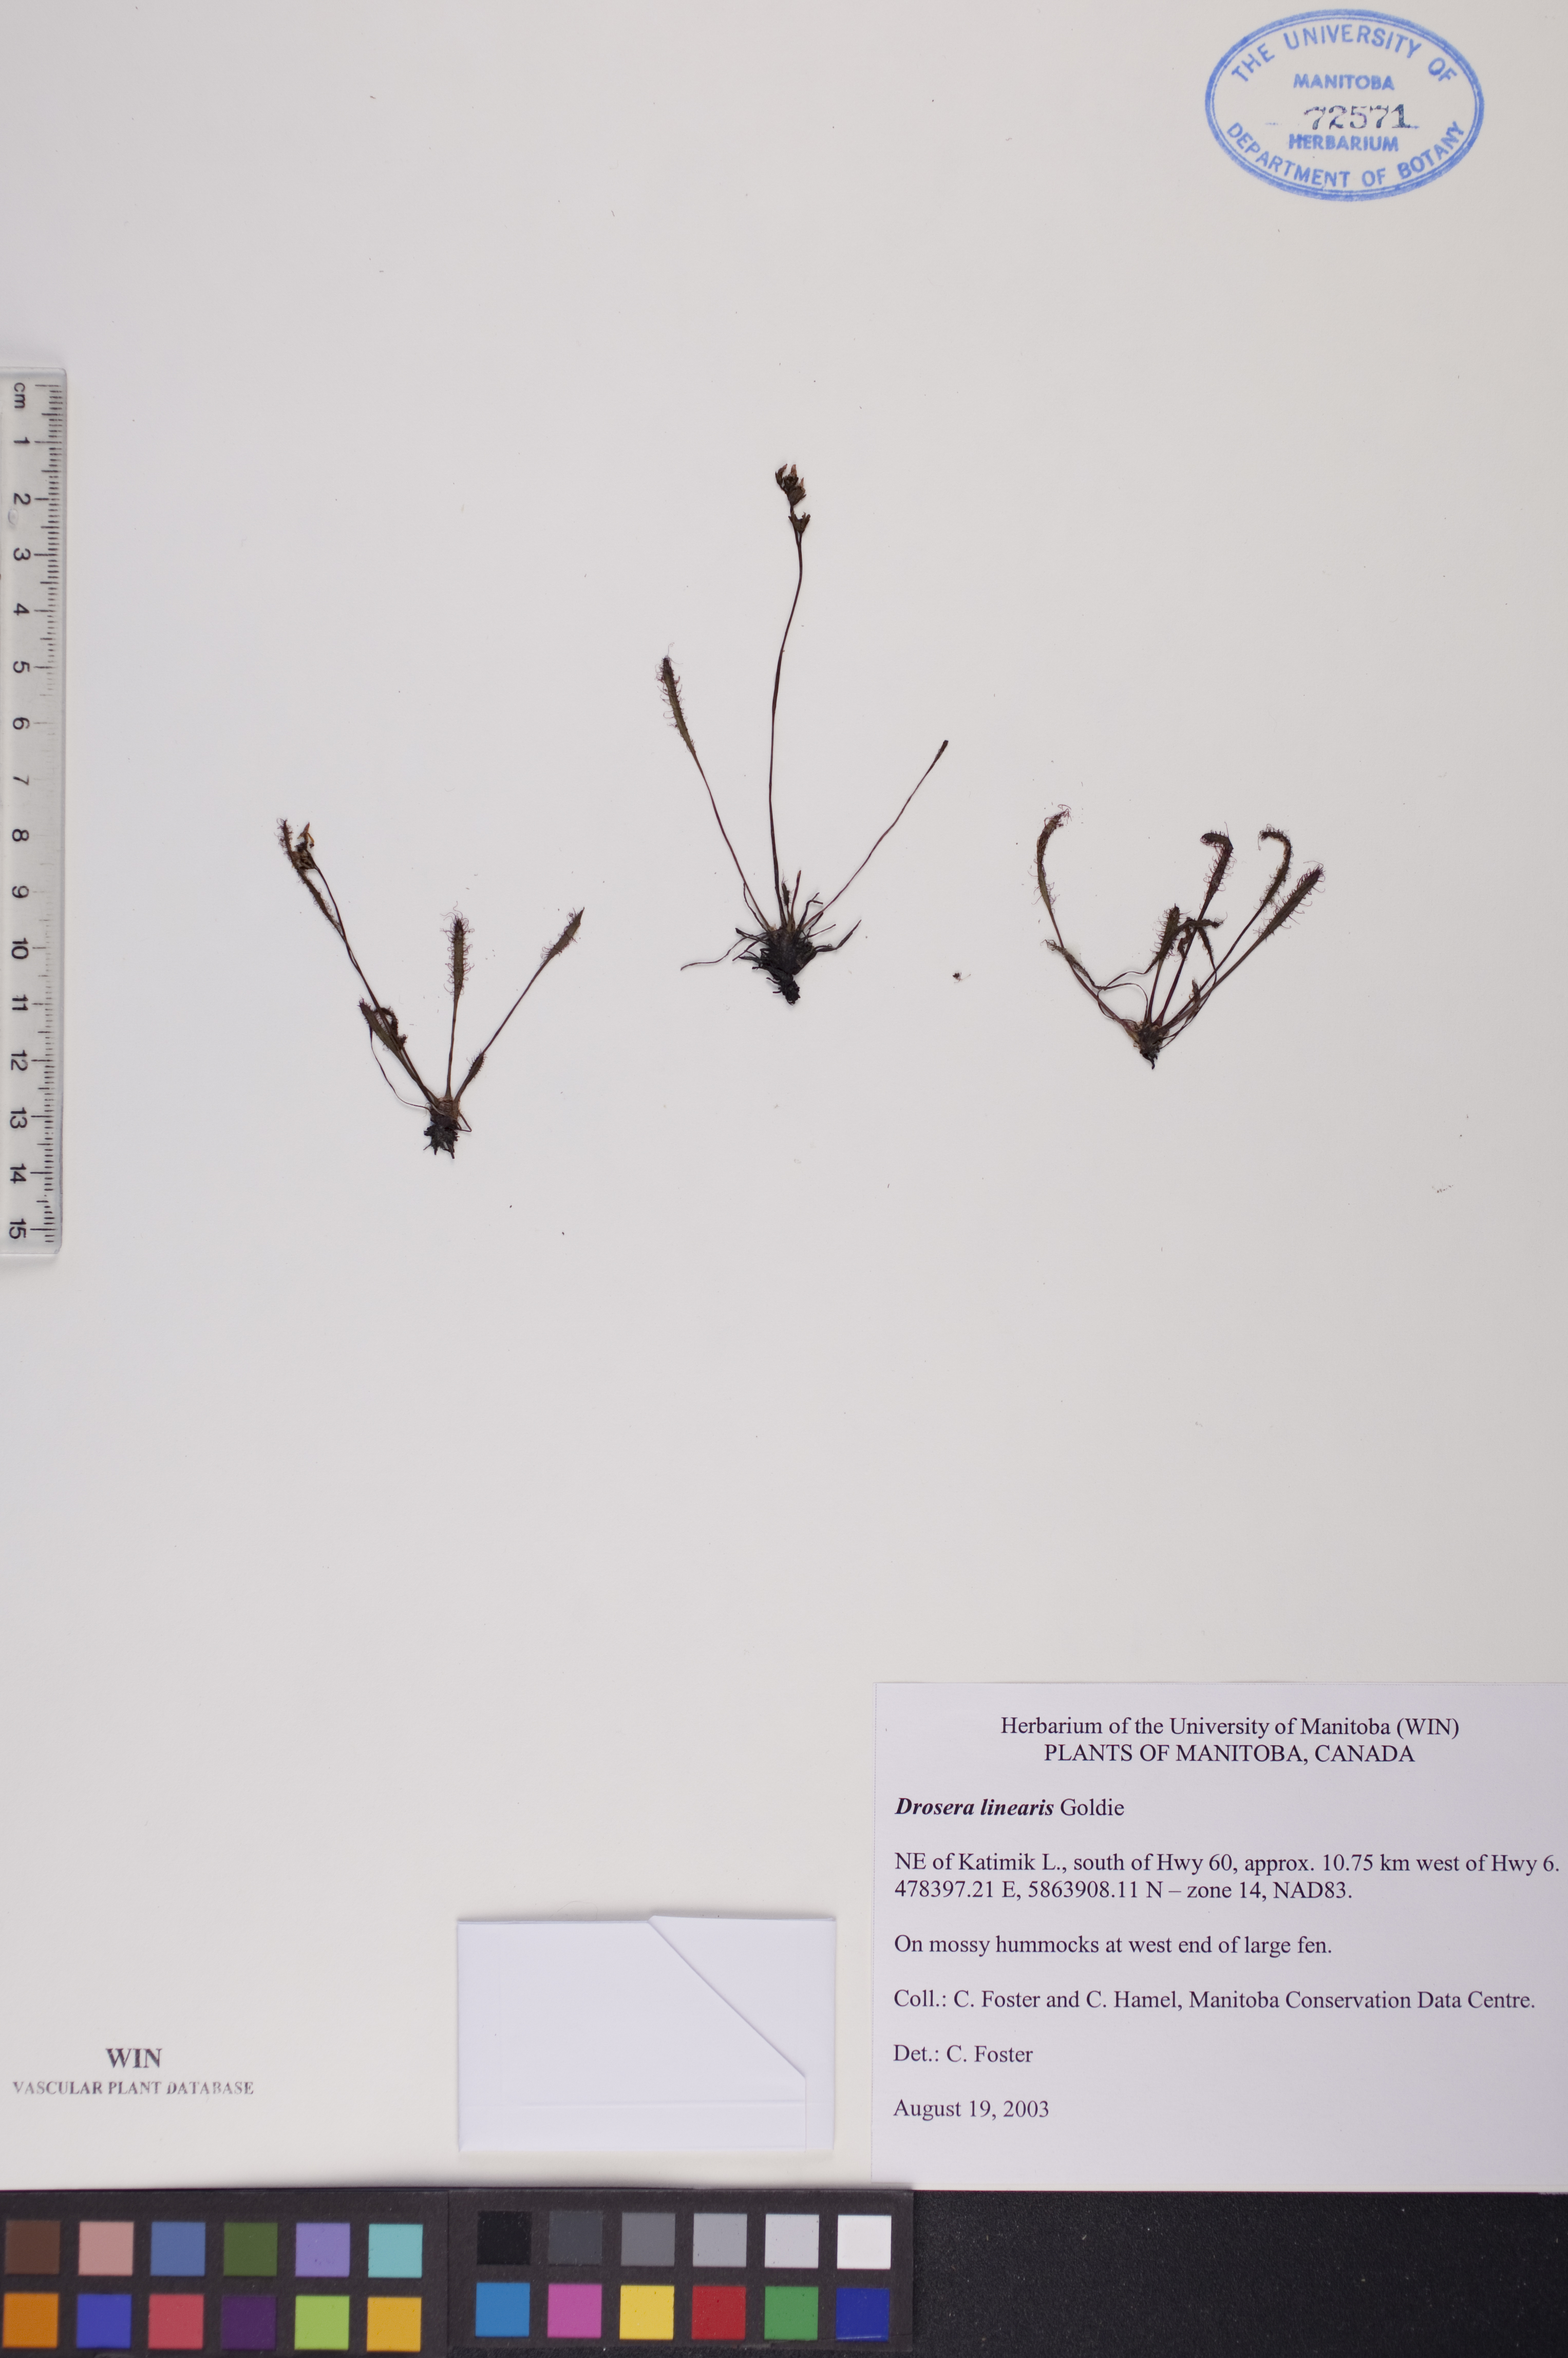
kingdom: Plantae
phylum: Tracheophyta
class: Magnoliopsida
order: Caryophyllales
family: Droseraceae
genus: Drosera
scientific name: Drosera linearis
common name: Linear-leaved sundew
